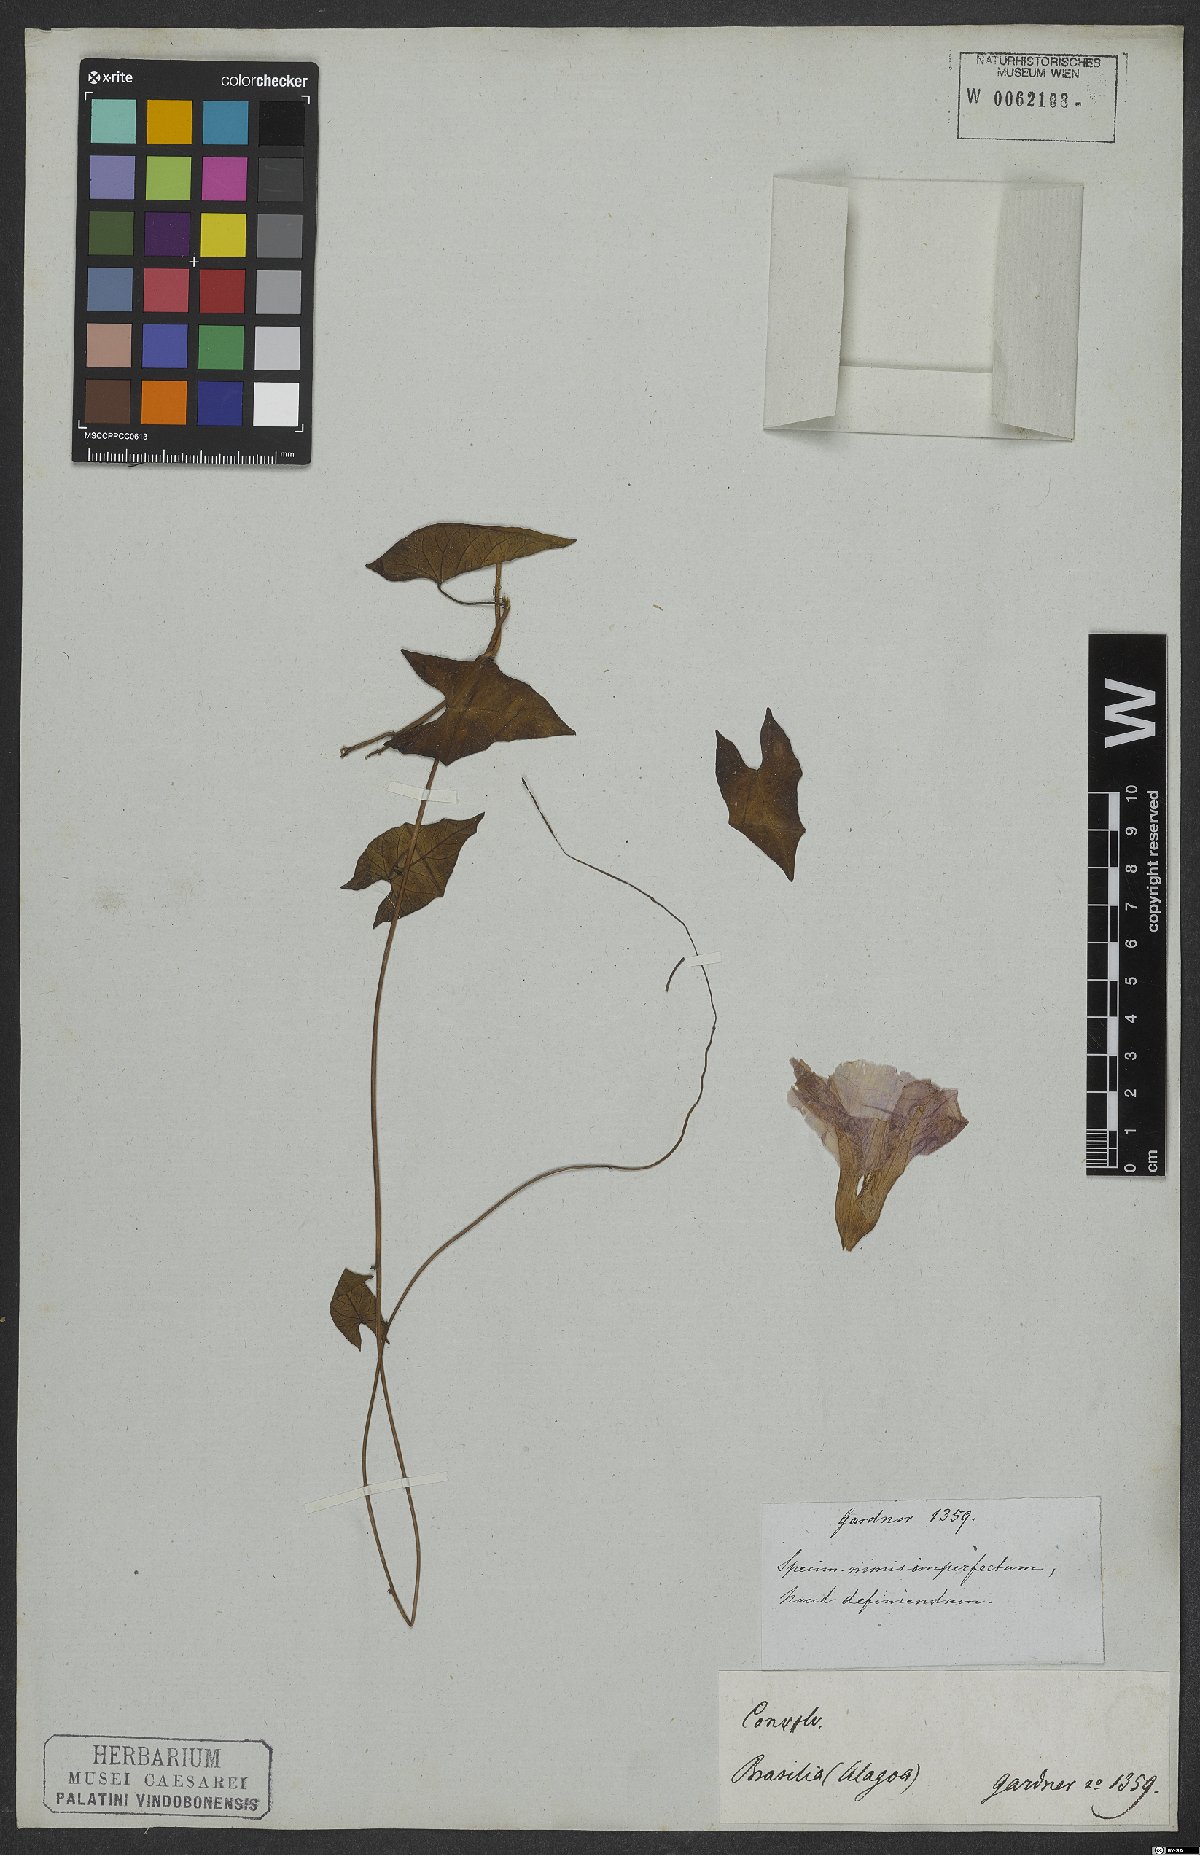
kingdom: Plantae
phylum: Tracheophyta
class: Magnoliopsida
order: Solanales
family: Convolvulaceae
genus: Ipomoea
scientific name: Ipomoea incarnata
